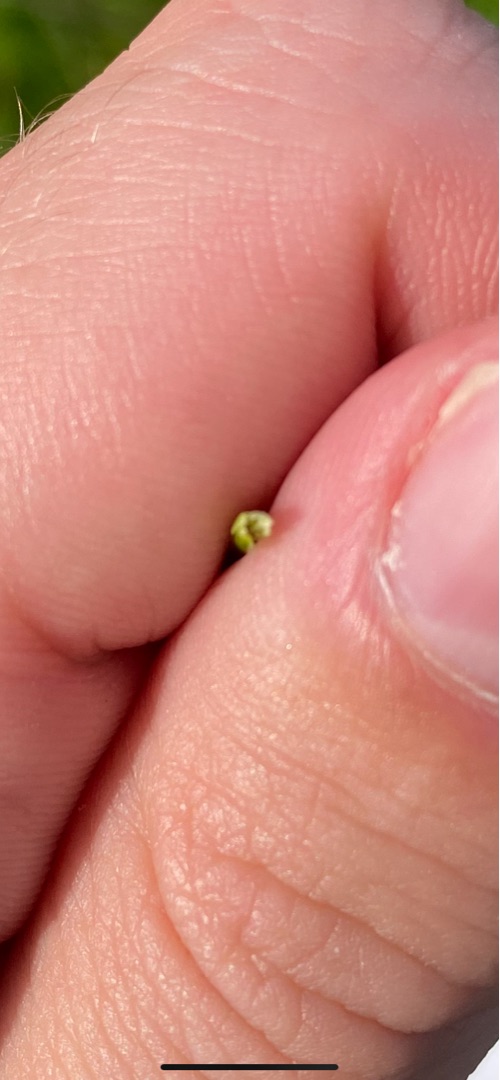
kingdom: Plantae
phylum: Tracheophyta
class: Liliopsida
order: Poales
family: Juncaceae
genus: Juncus
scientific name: Juncus gerardi
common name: Harril
